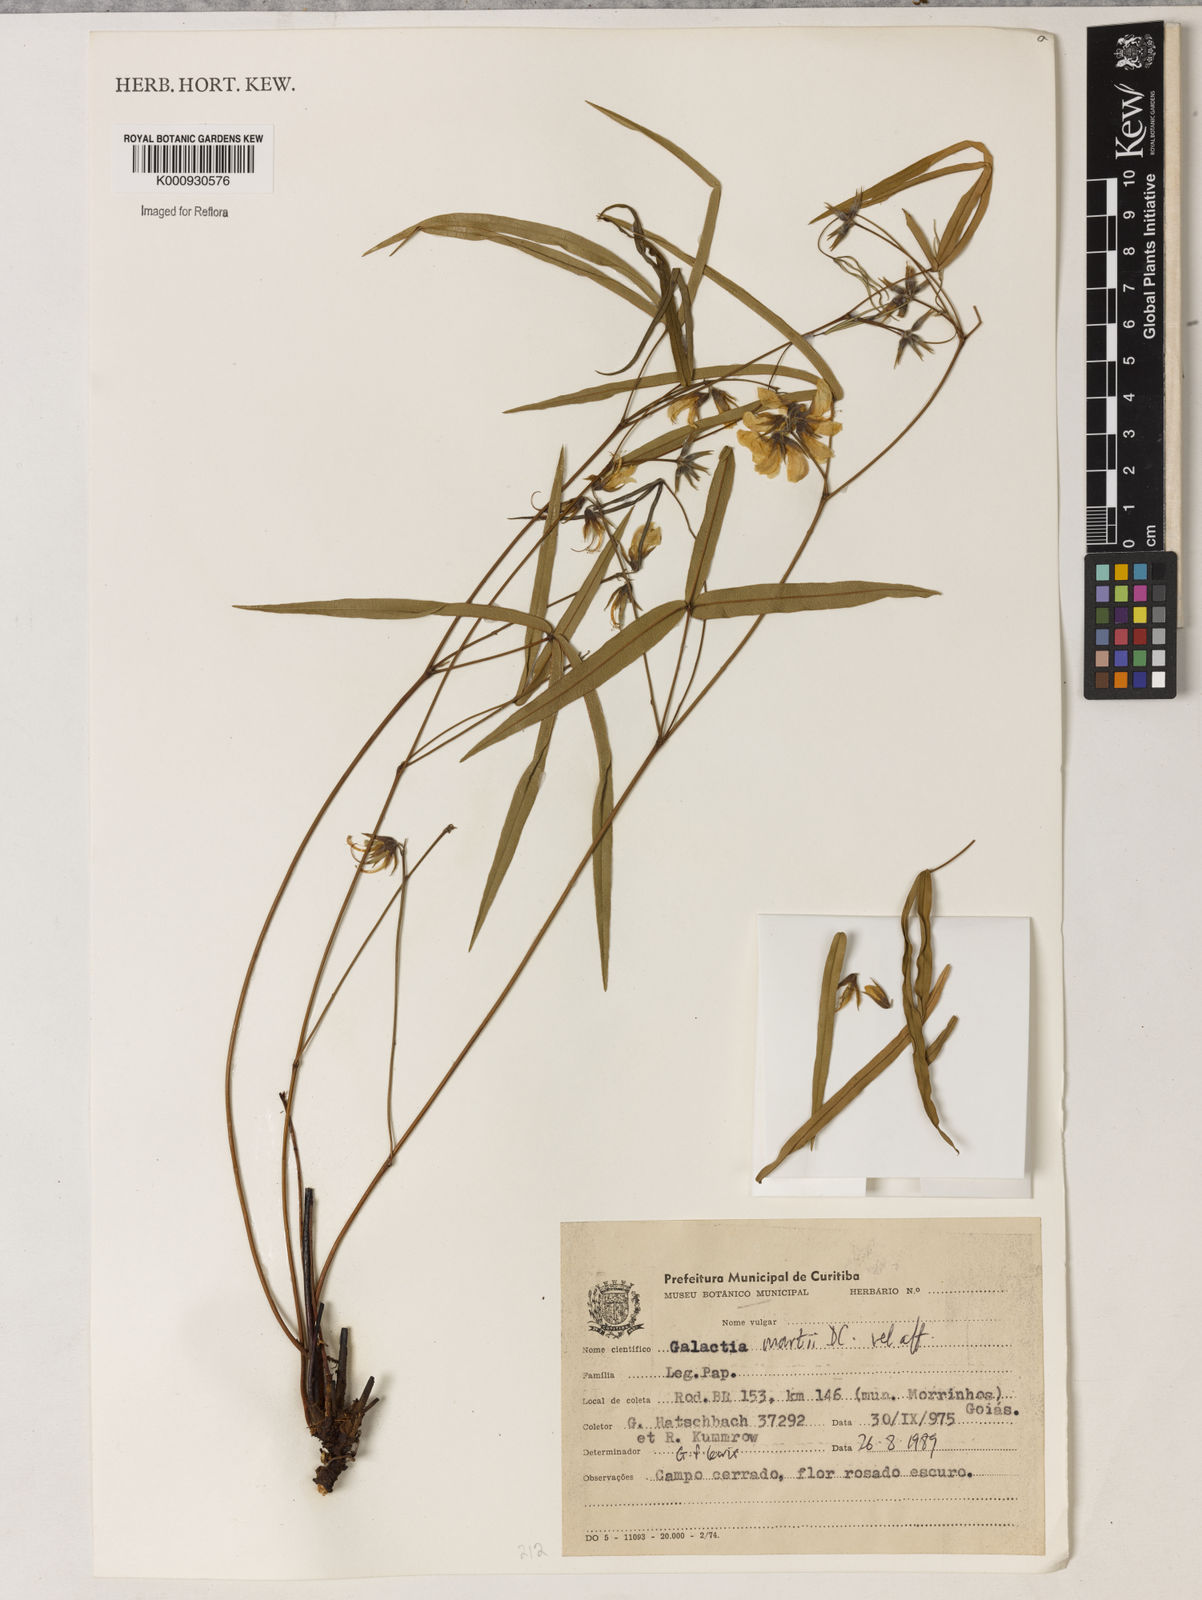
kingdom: Plantae
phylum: Tracheophyta
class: Magnoliopsida
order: Fabales
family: Fabaceae
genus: Betencourtia
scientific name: Betencourtia martii
